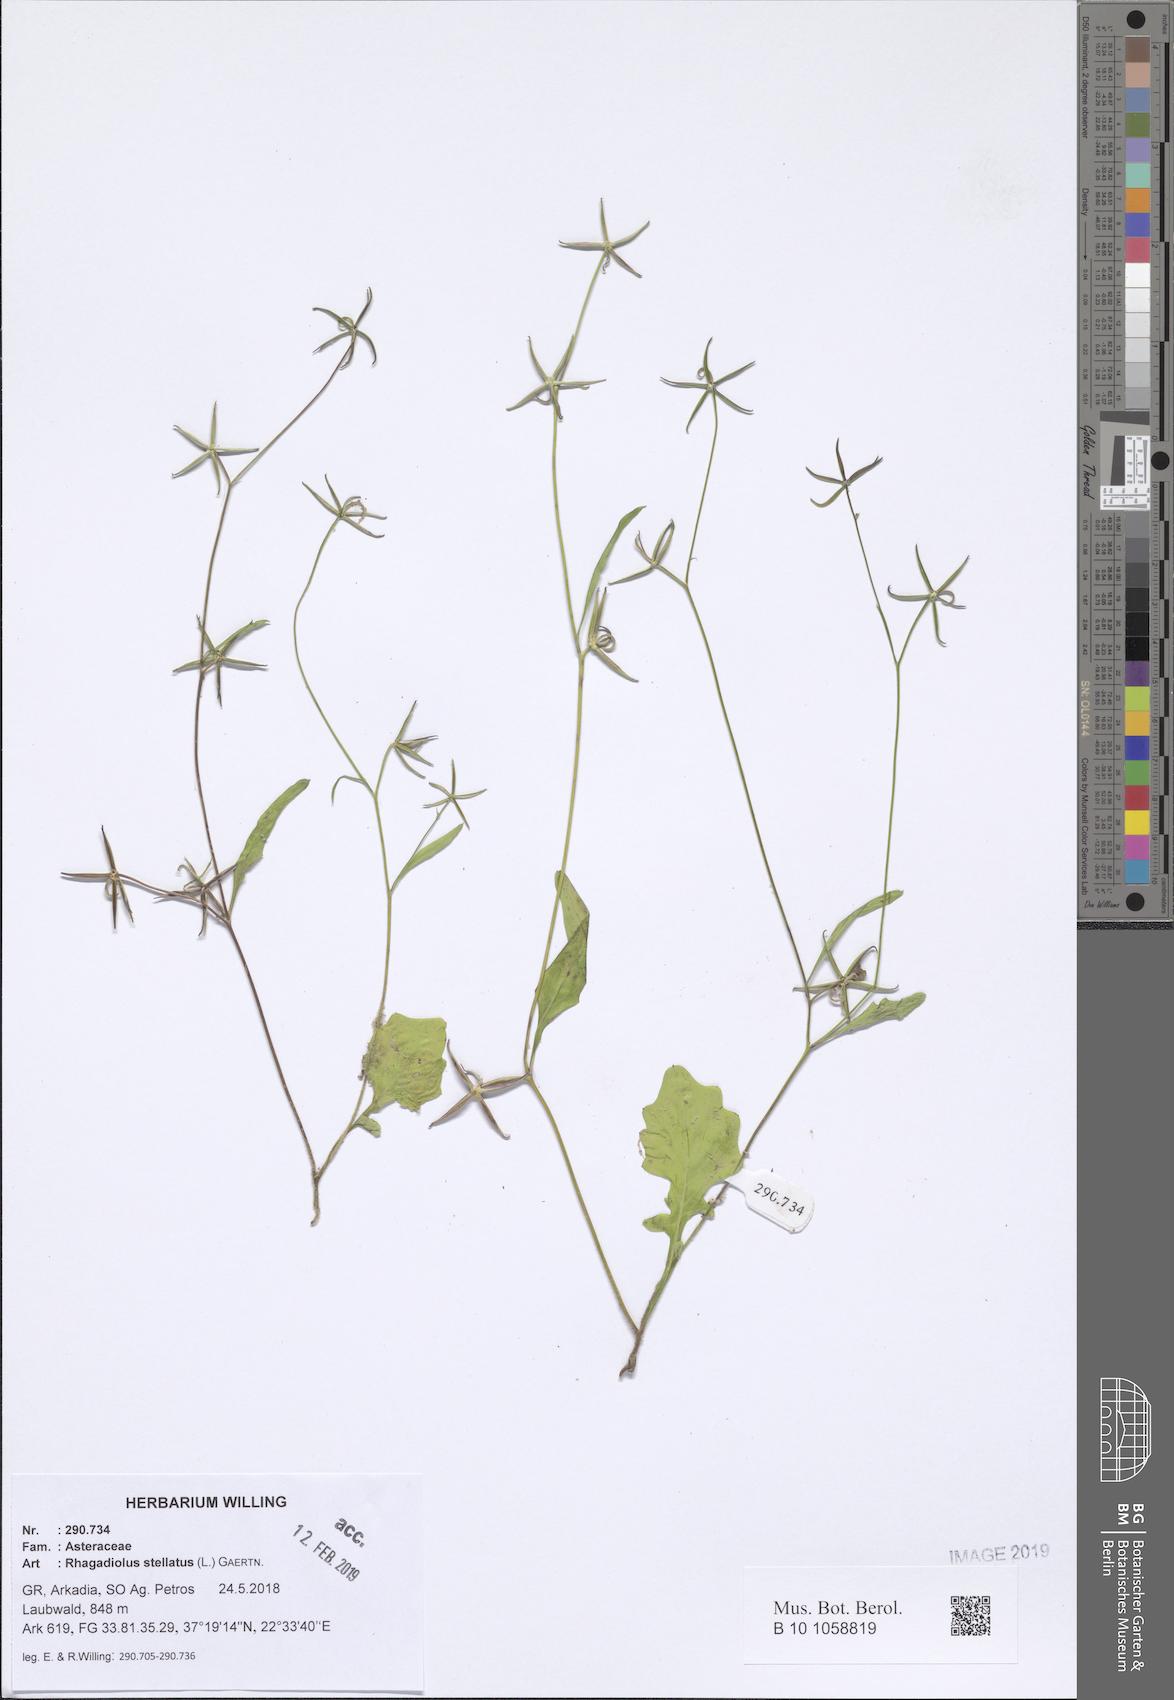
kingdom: Plantae
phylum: Tracheophyta
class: Magnoliopsida
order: Asterales
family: Asteraceae
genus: Rhagadiolus
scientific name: Rhagadiolus stellatus
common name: Star hawkbit
